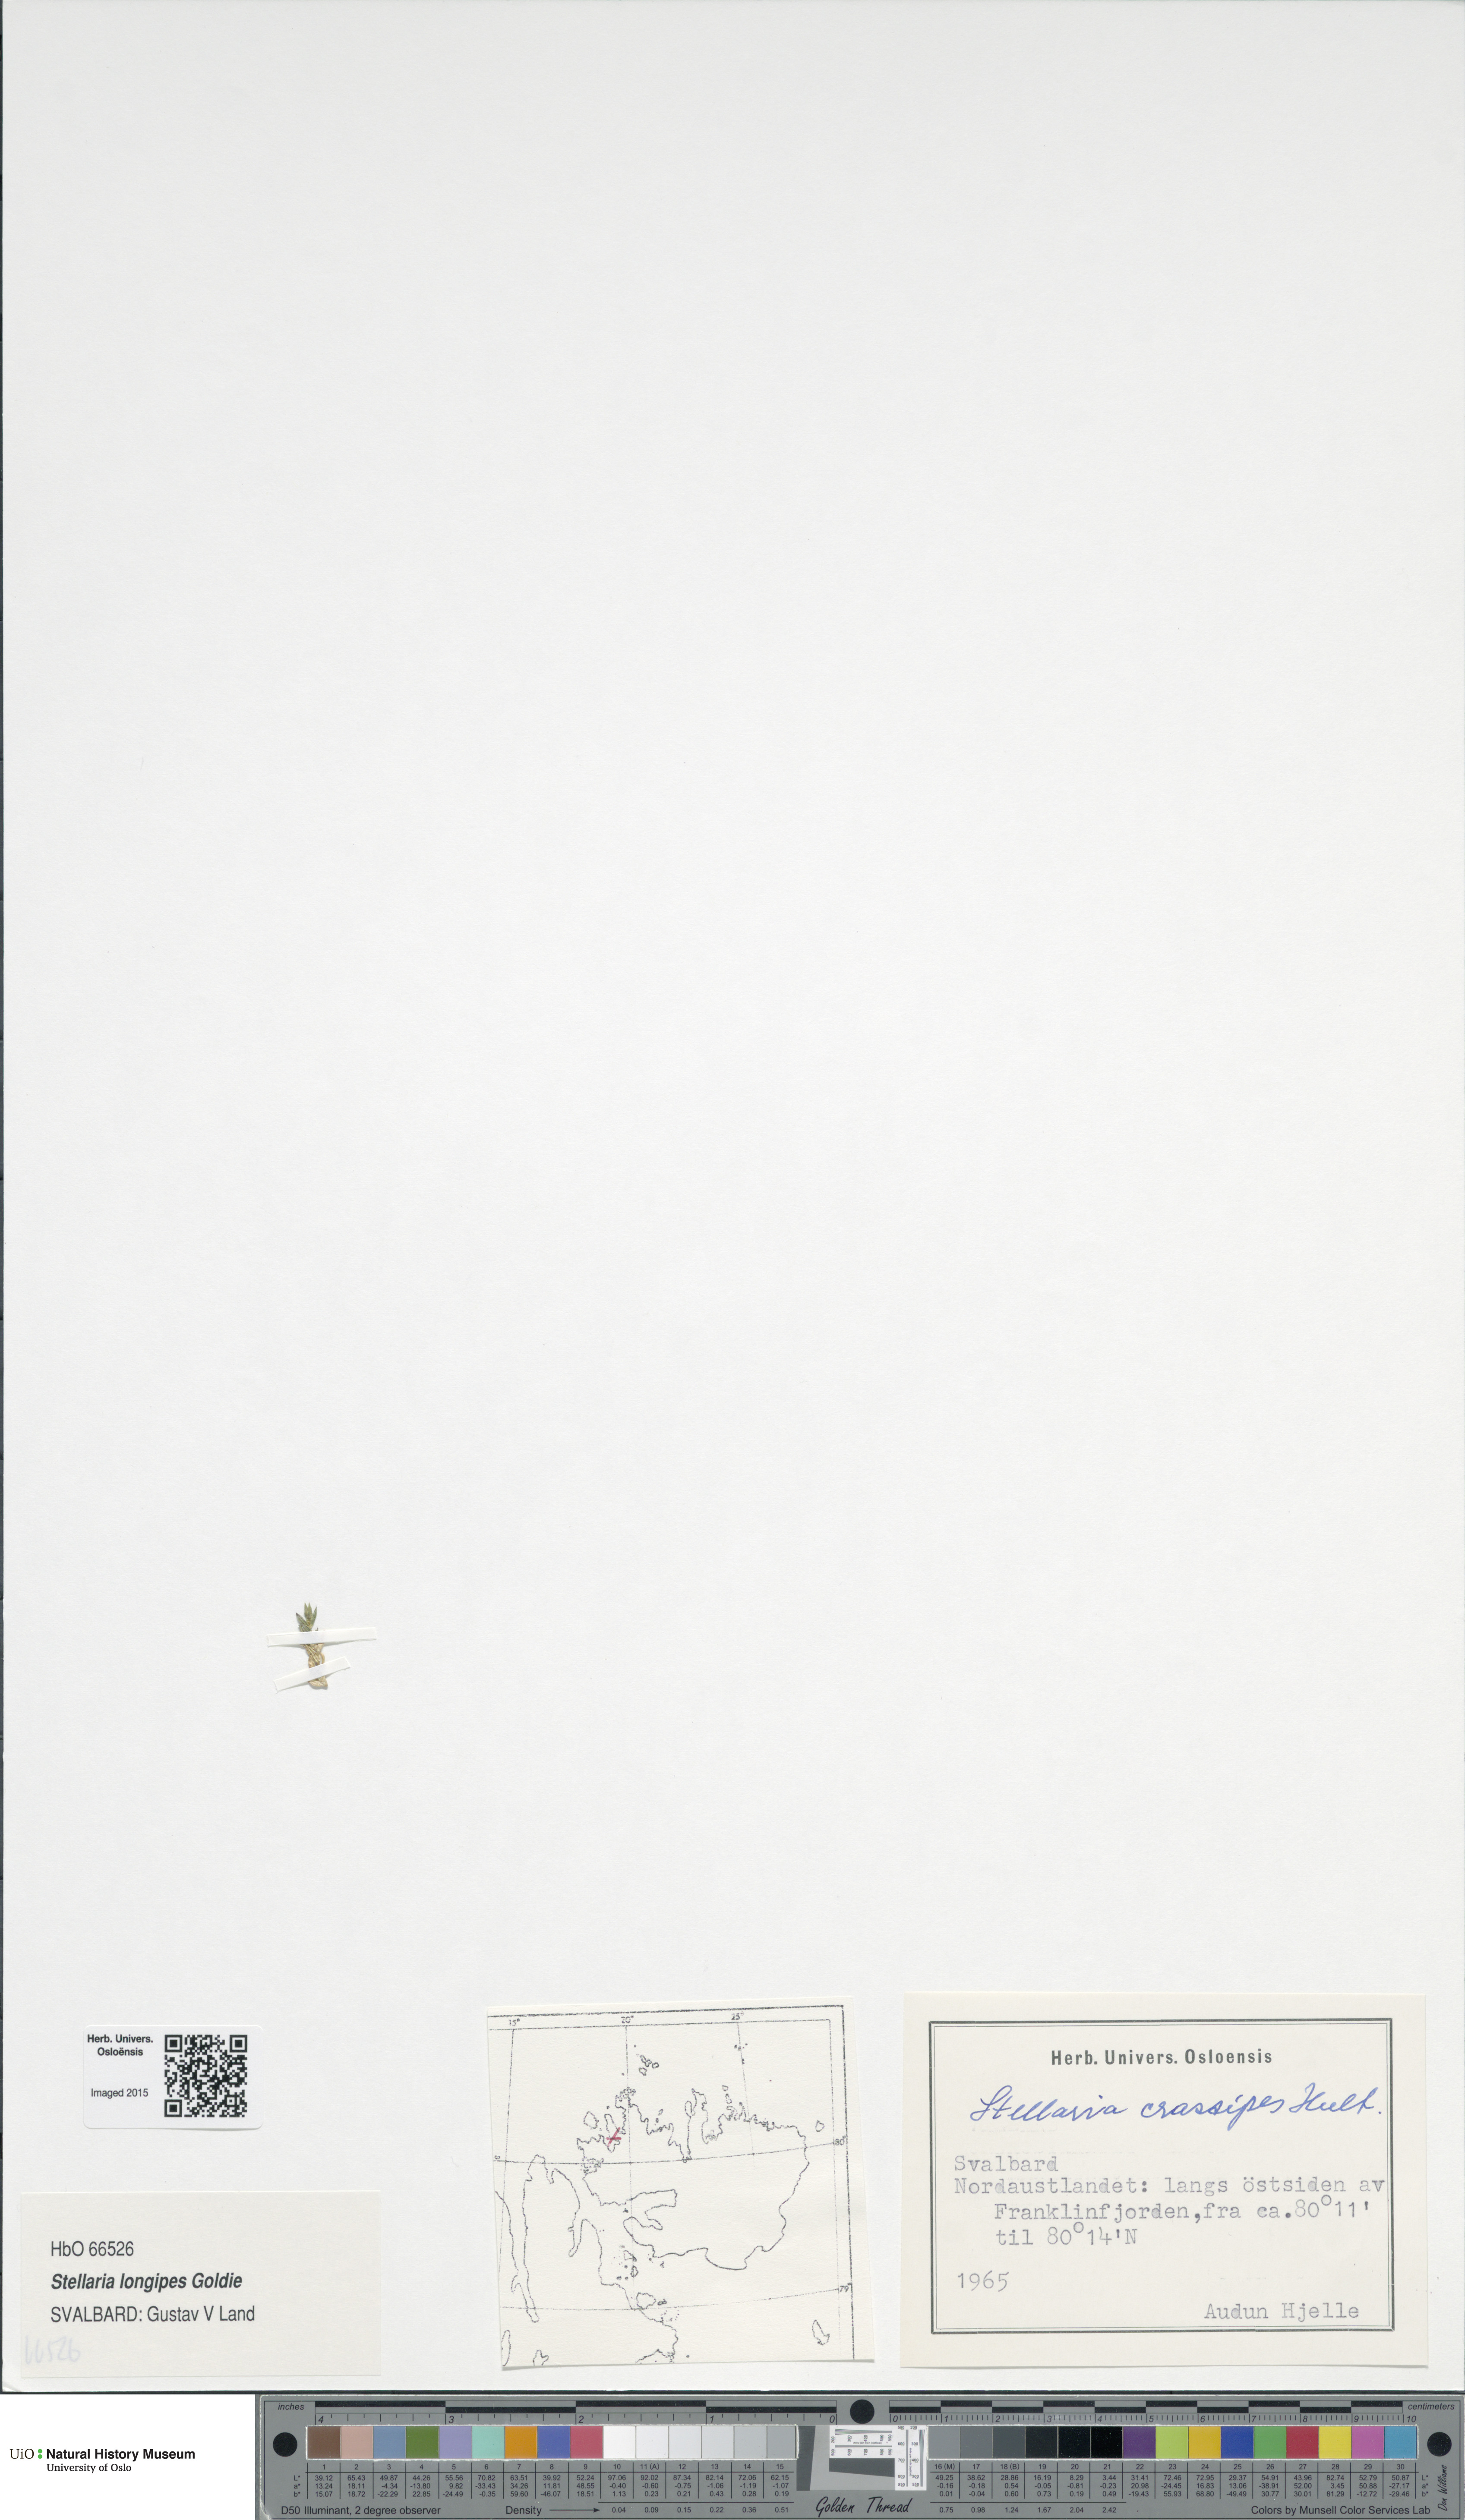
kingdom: Plantae
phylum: Tracheophyta
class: Magnoliopsida
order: Caryophyllales
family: Caryophyllaceae
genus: Stellaria
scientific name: Stellaria longipes
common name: Goldie's starwort
